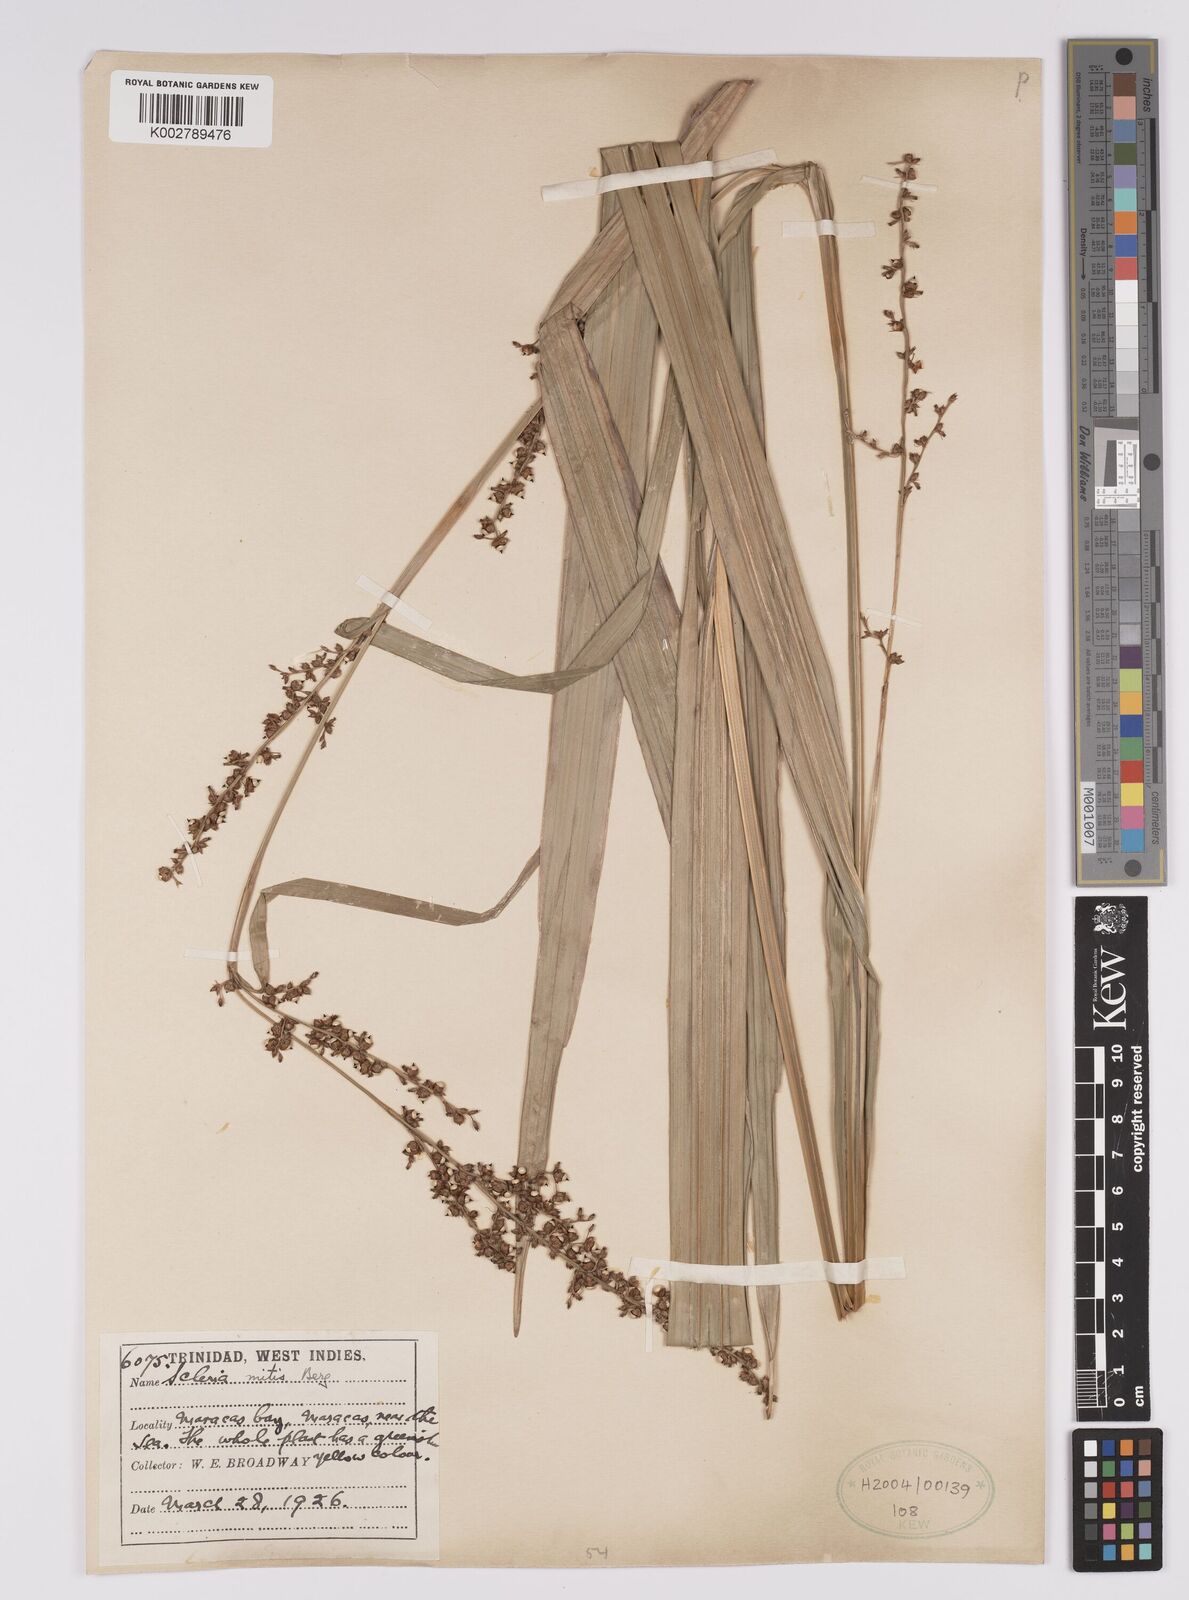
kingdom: Plantae
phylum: Tracheophyta
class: Liliopsida
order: Poales
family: Cyperaceae
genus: Scleria
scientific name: Scleria mitis
